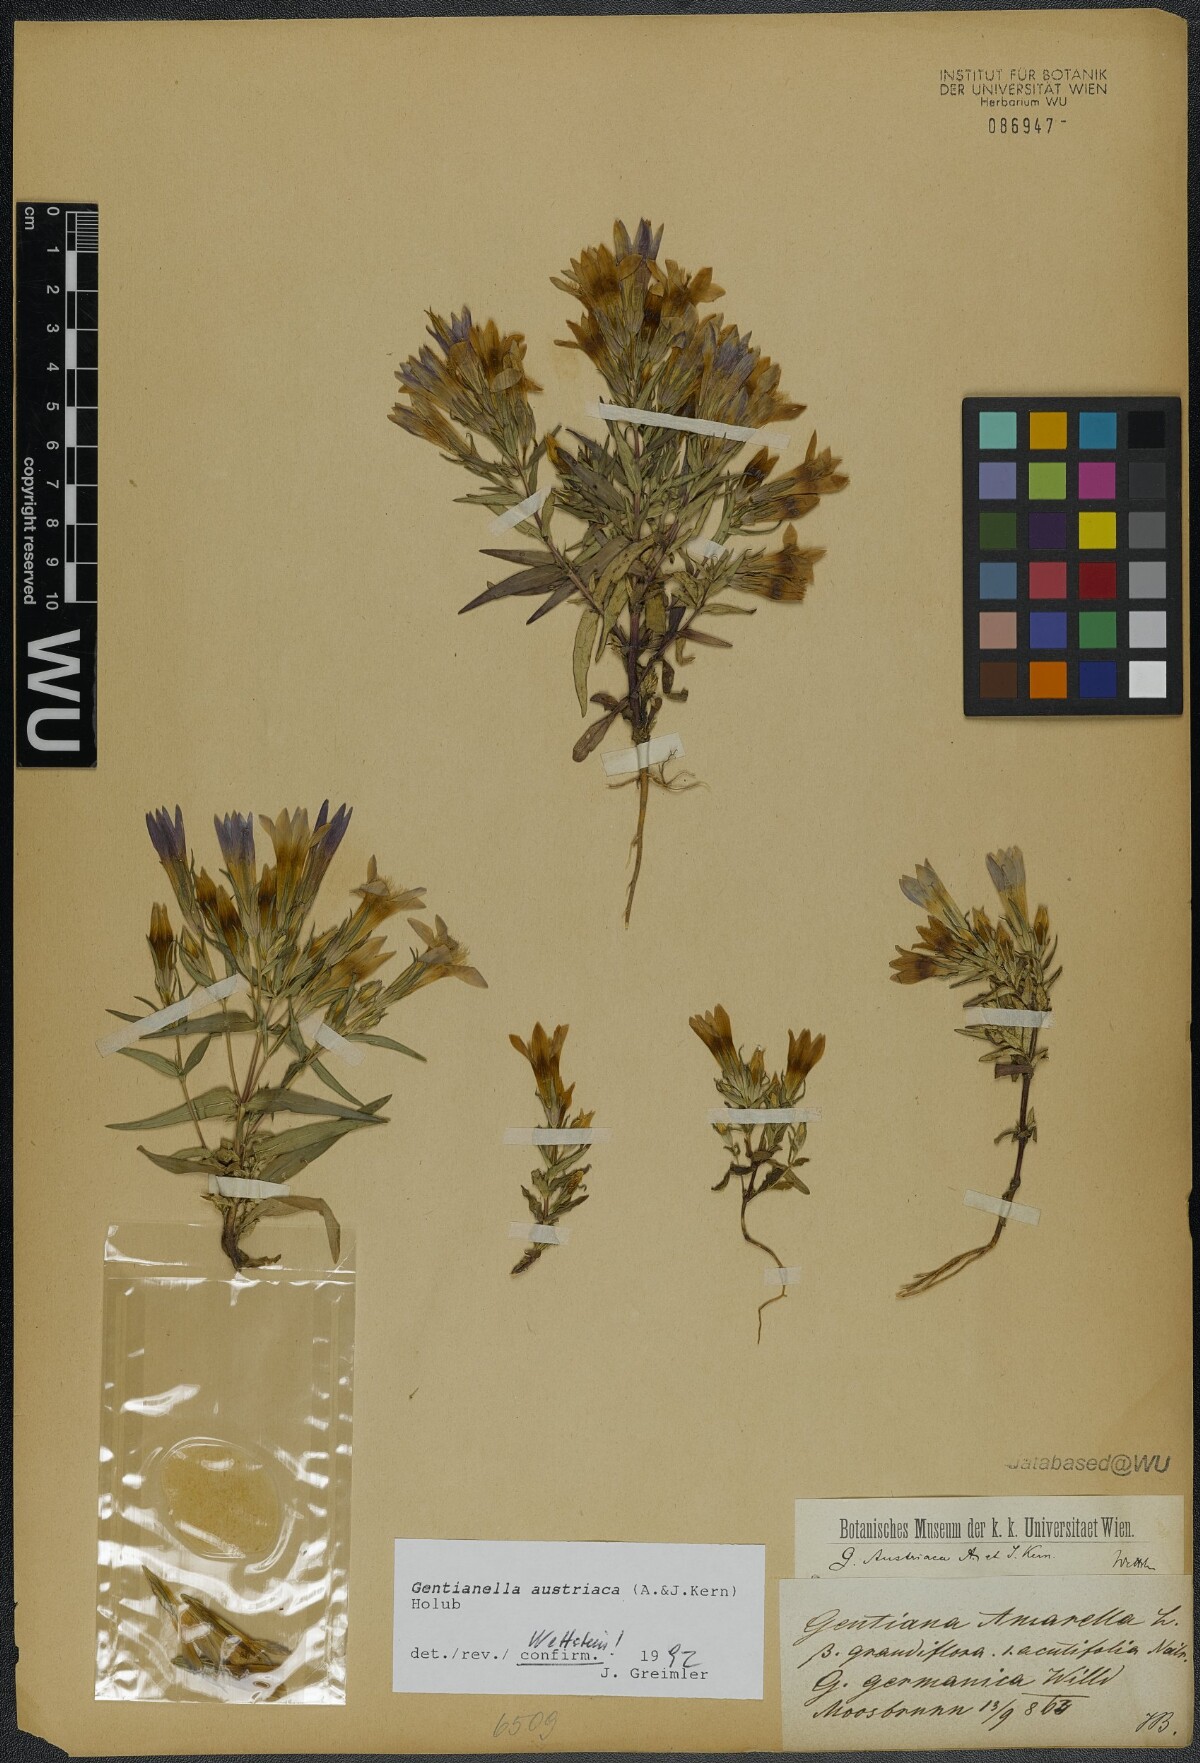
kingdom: Plantae
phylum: Tracheophyta
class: Magnoliopsida
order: Gentianales
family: Gentianaceae
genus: Gentianella
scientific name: Gentianella austriaca
